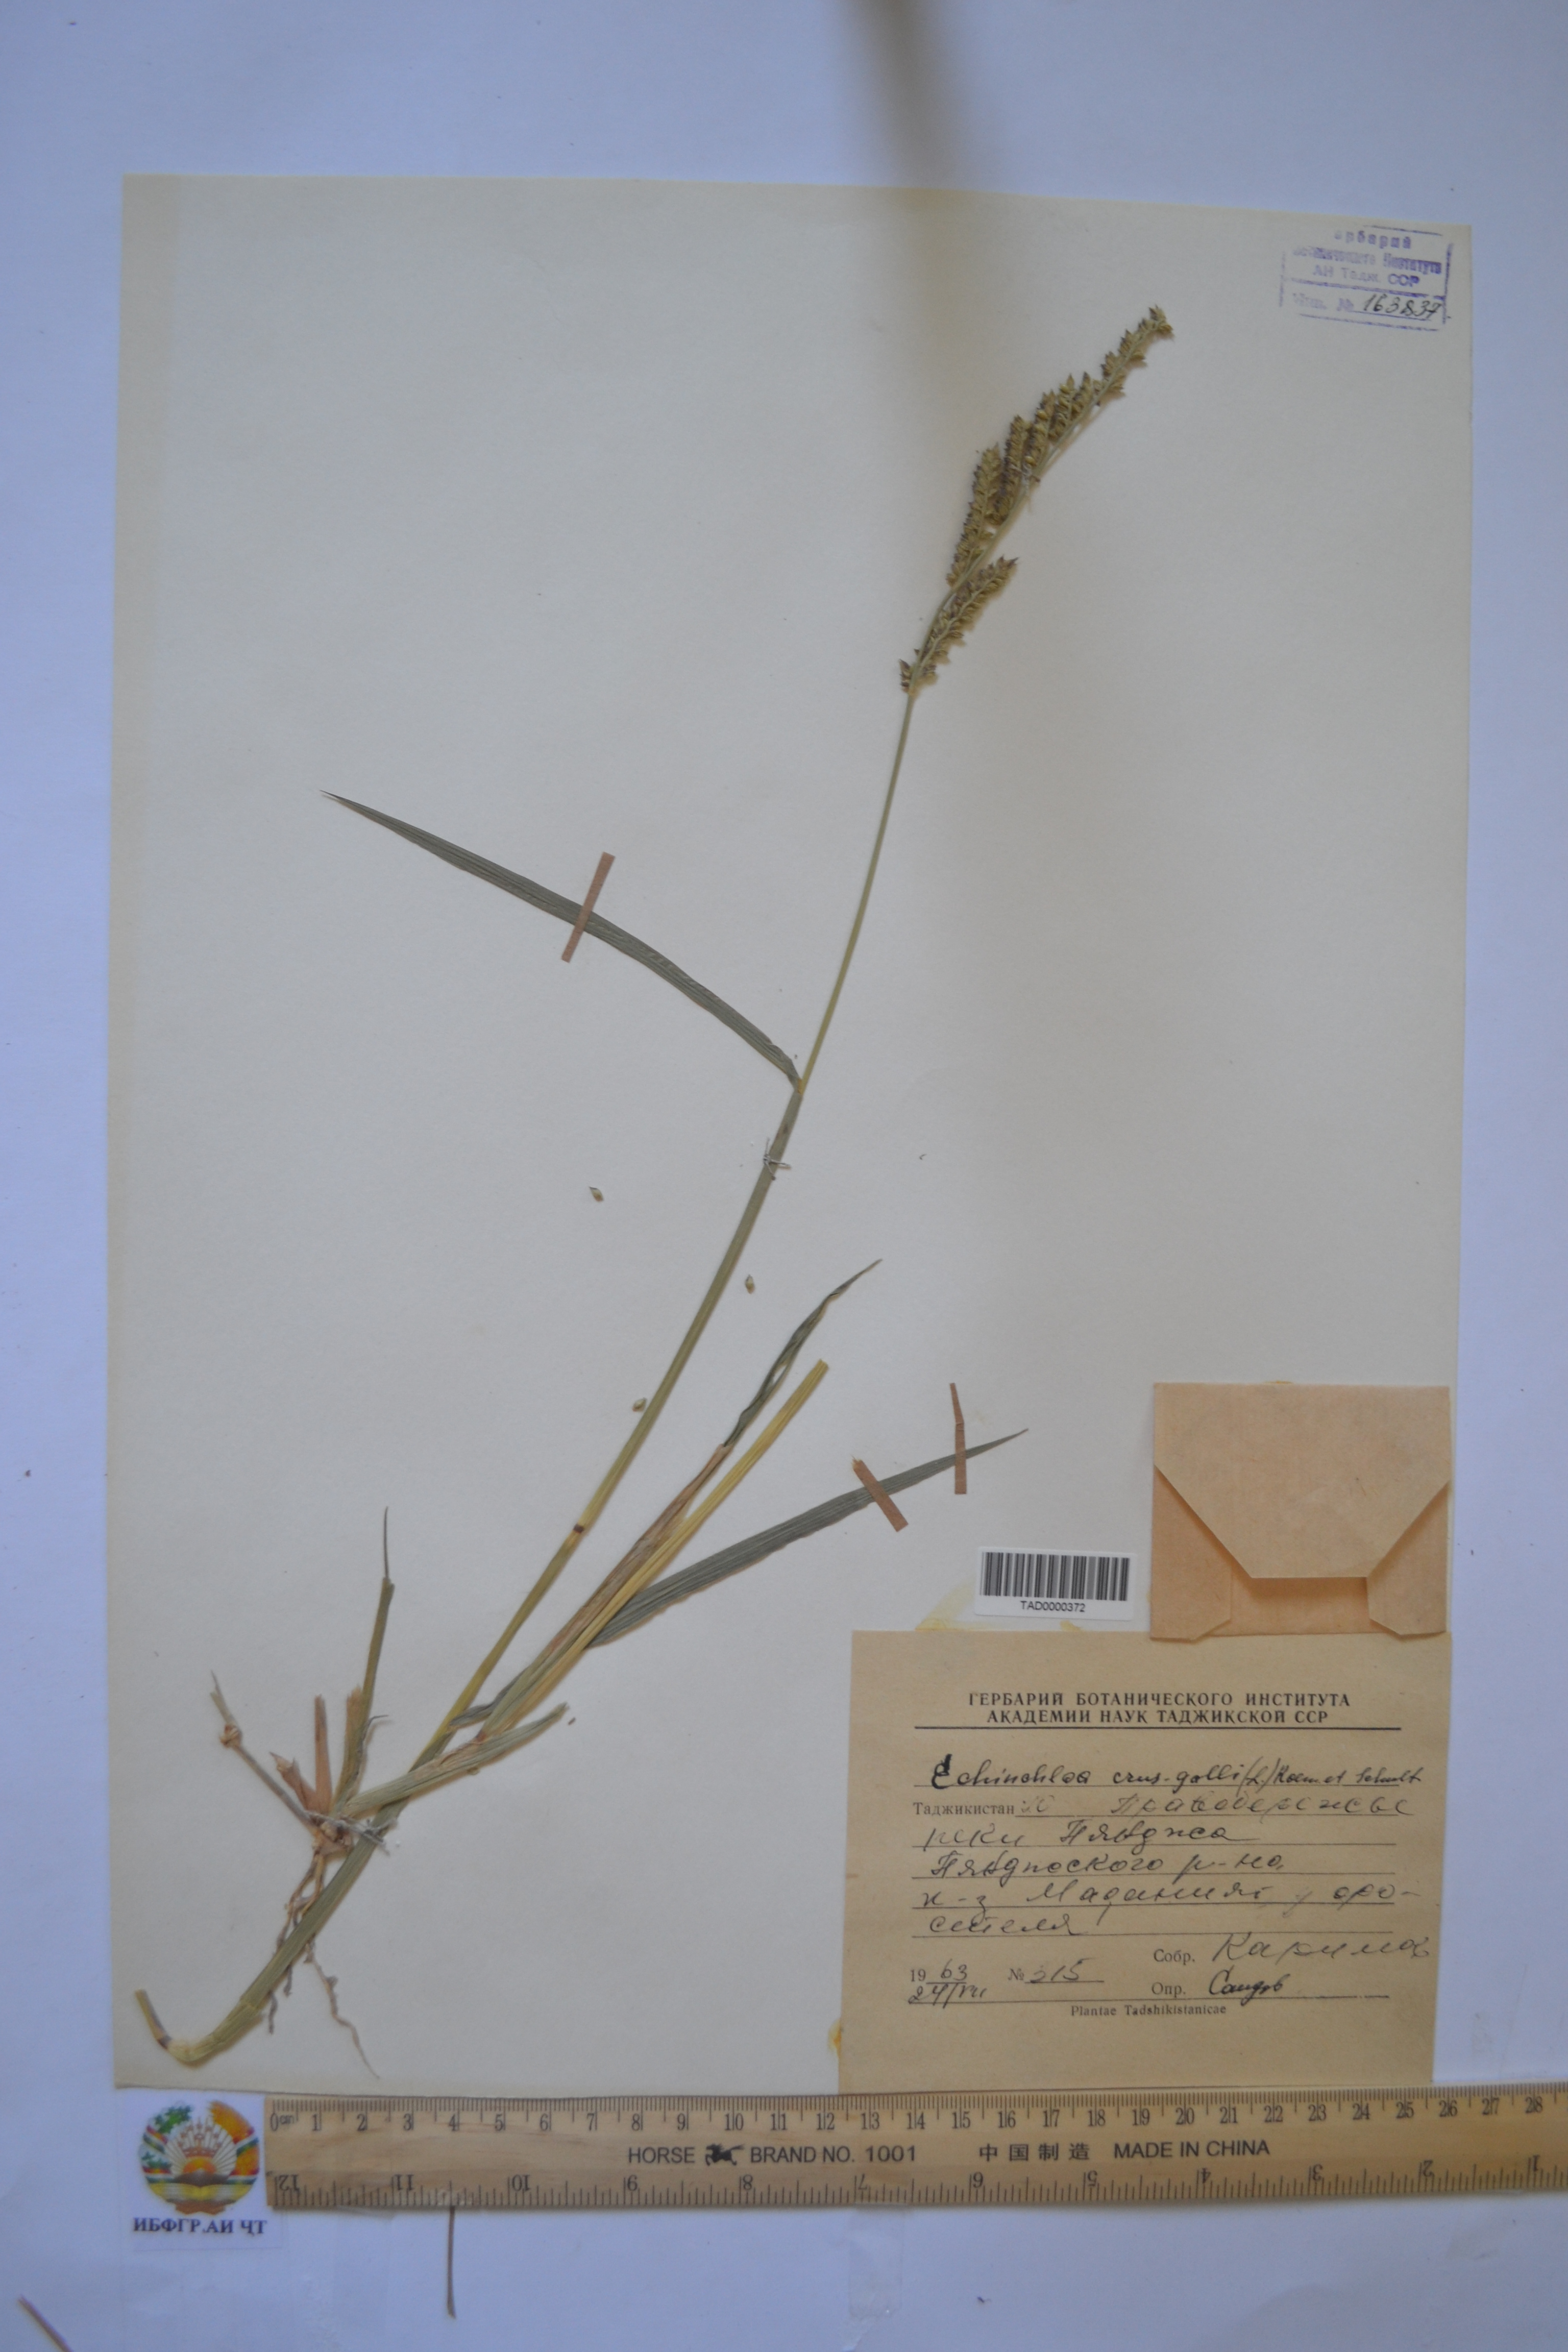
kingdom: Plantae
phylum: Tracheophyta
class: Liliopsida
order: Poales
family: Poaceae
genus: Echinochloa
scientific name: Echinochloa crus-galli
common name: Cockspur
